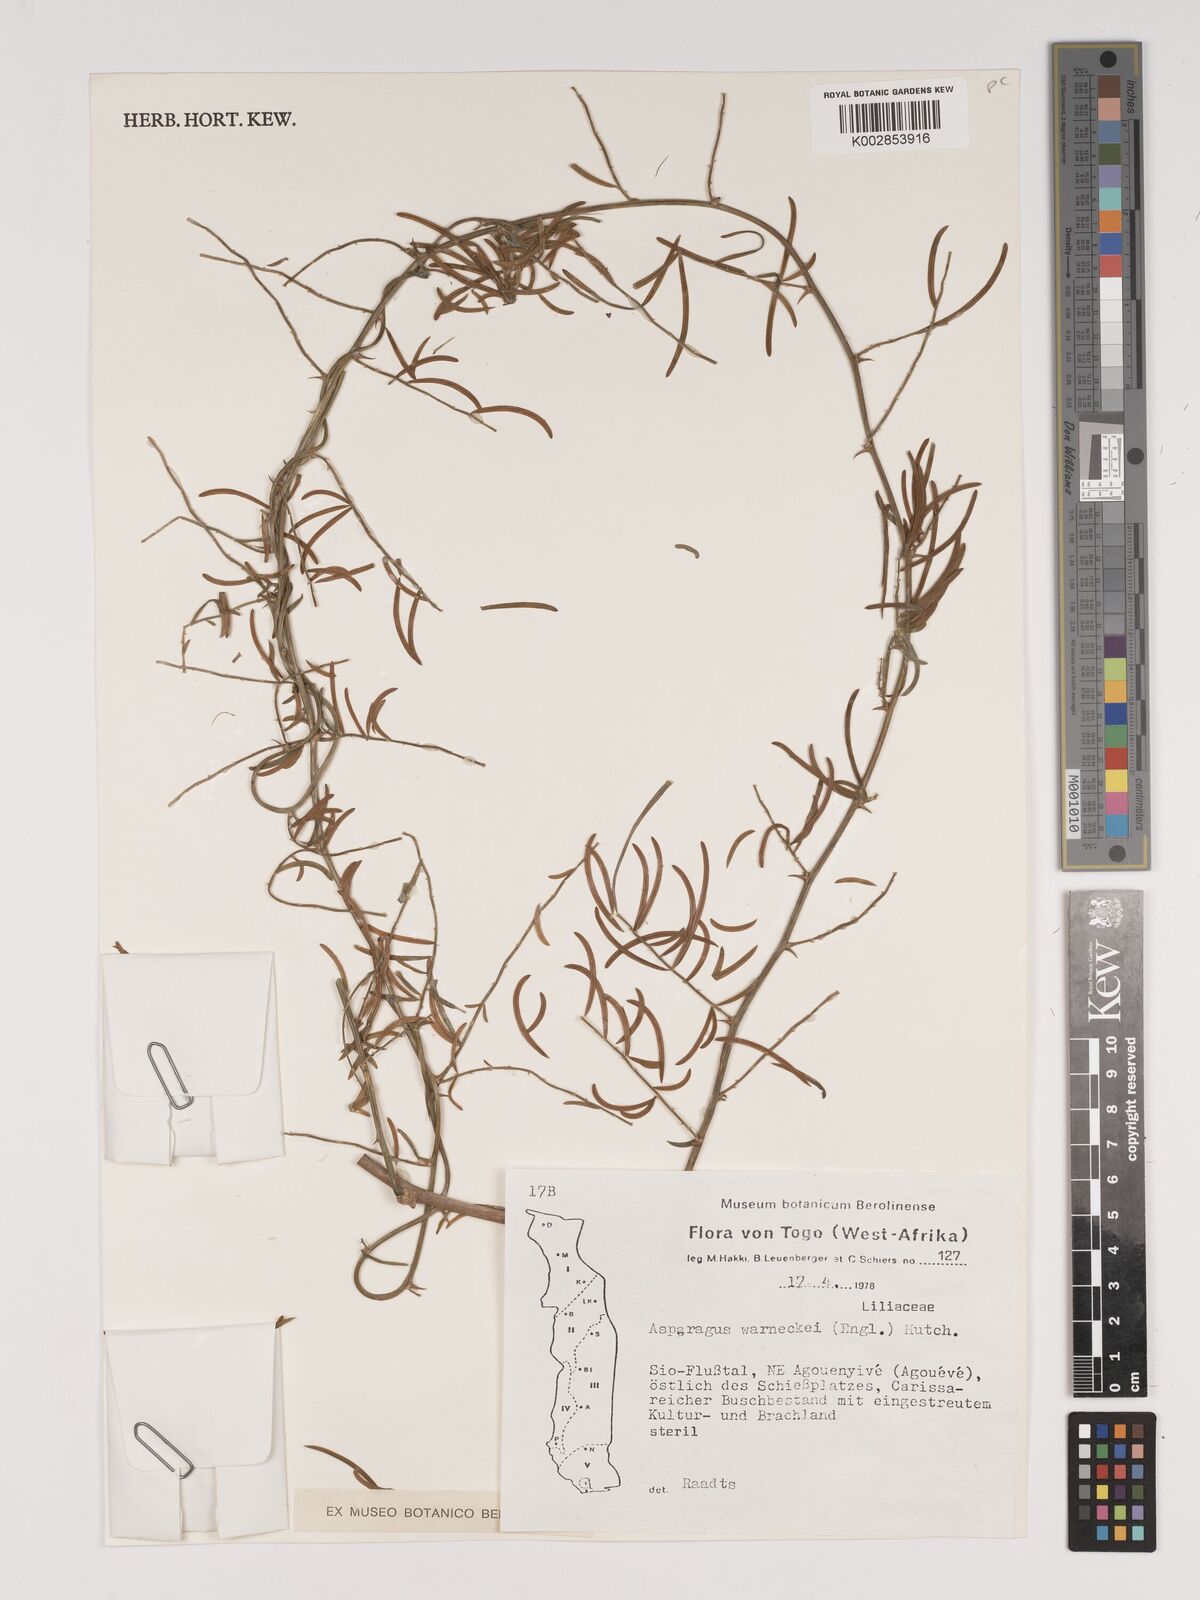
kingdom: Plantae
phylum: Tracheophyta
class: Liliopsida
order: Asparagales
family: Asparagaceae
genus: Asparagus
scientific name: Asparagus warneckei
